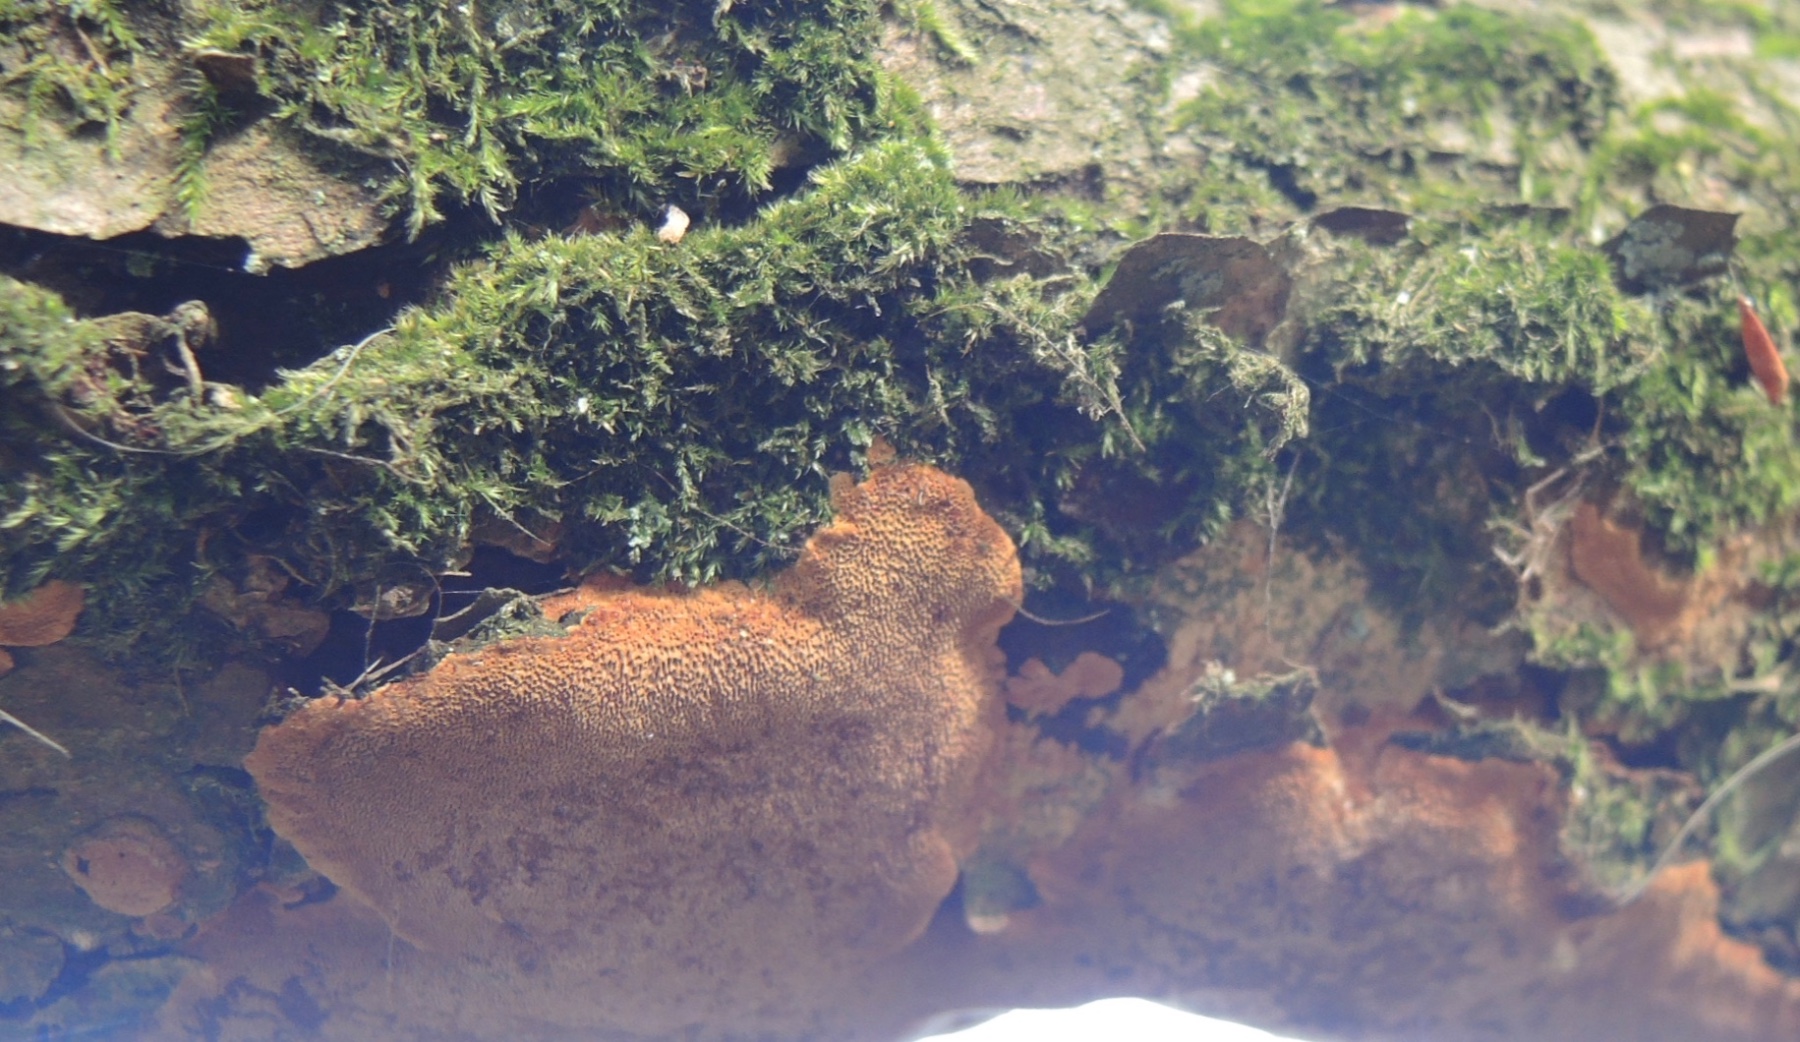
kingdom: Fungi
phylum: Basidiomycota
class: Agaricomycetes
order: Hymenochaetales
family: Hymenochaetaceae
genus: Fuscoporia
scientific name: Fuscoporia ferrea
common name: skorpe-ildporesvamp
